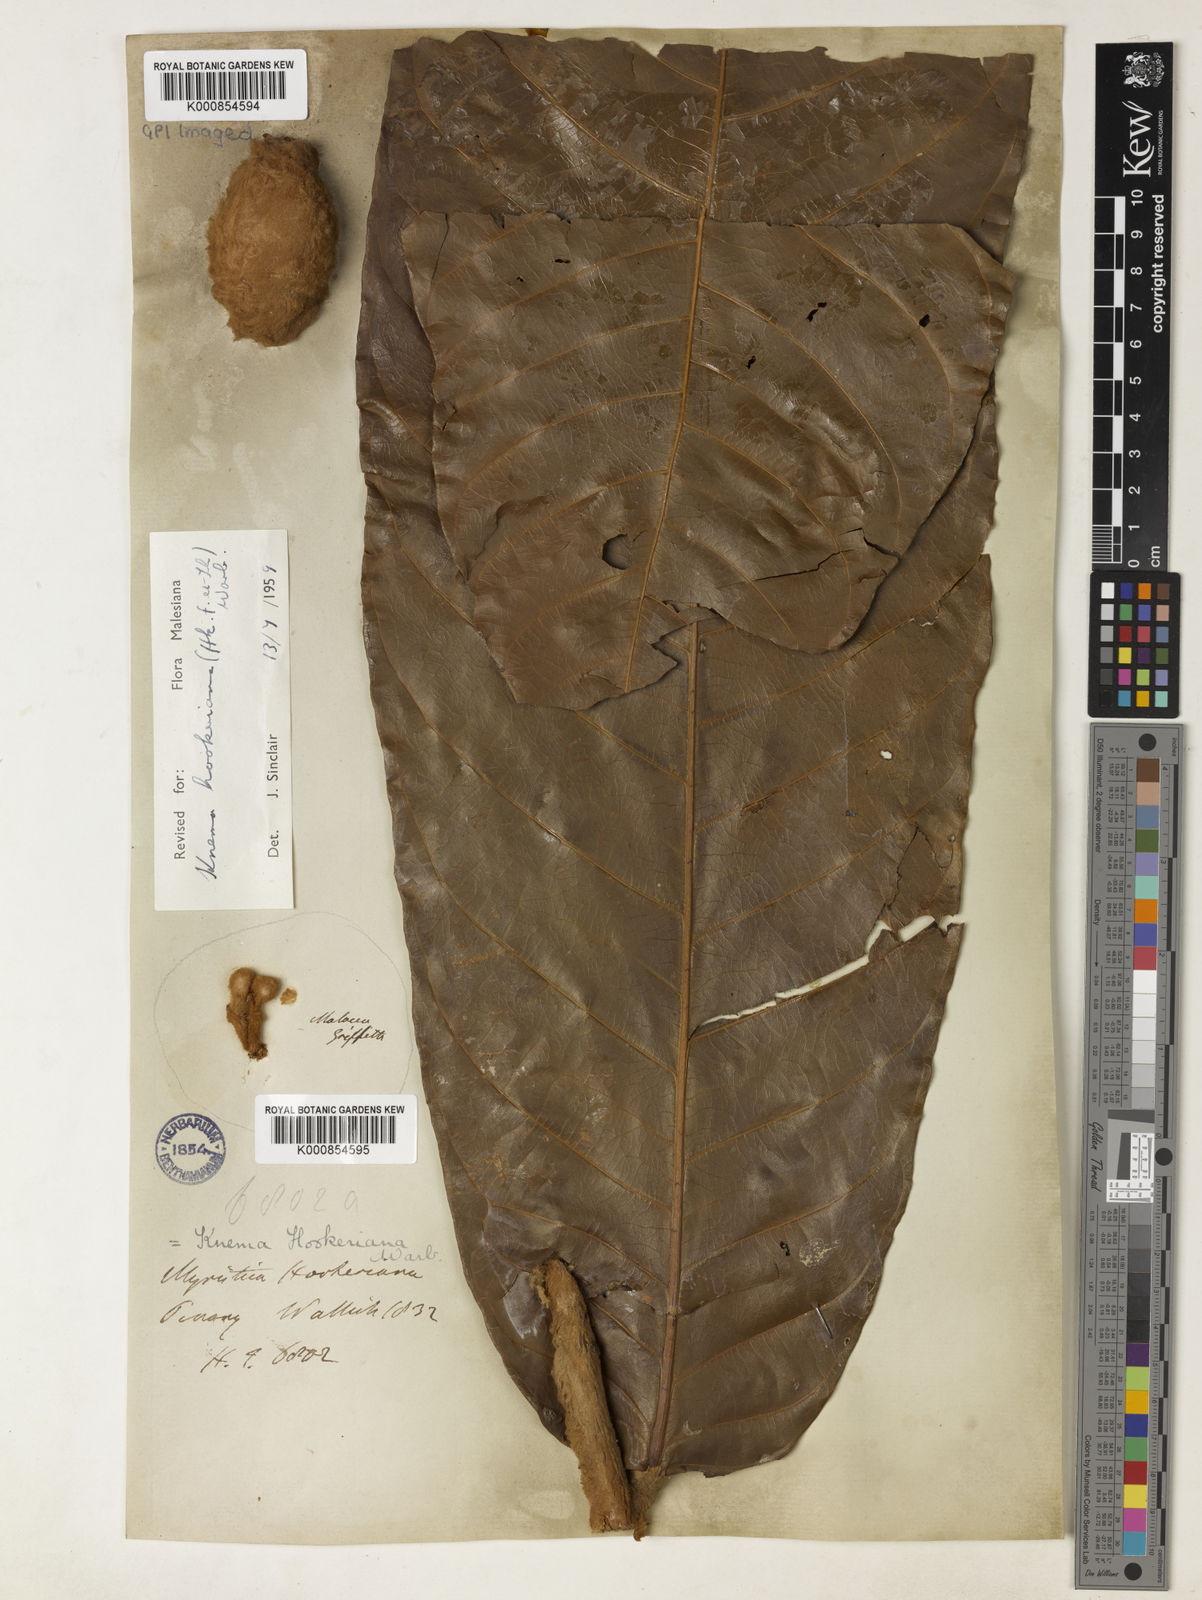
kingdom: Plantae
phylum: Tracheophyta
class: Magnoliopsida
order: Magnoliales
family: Myristicaceae
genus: Knema
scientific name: Knema hookeriana
